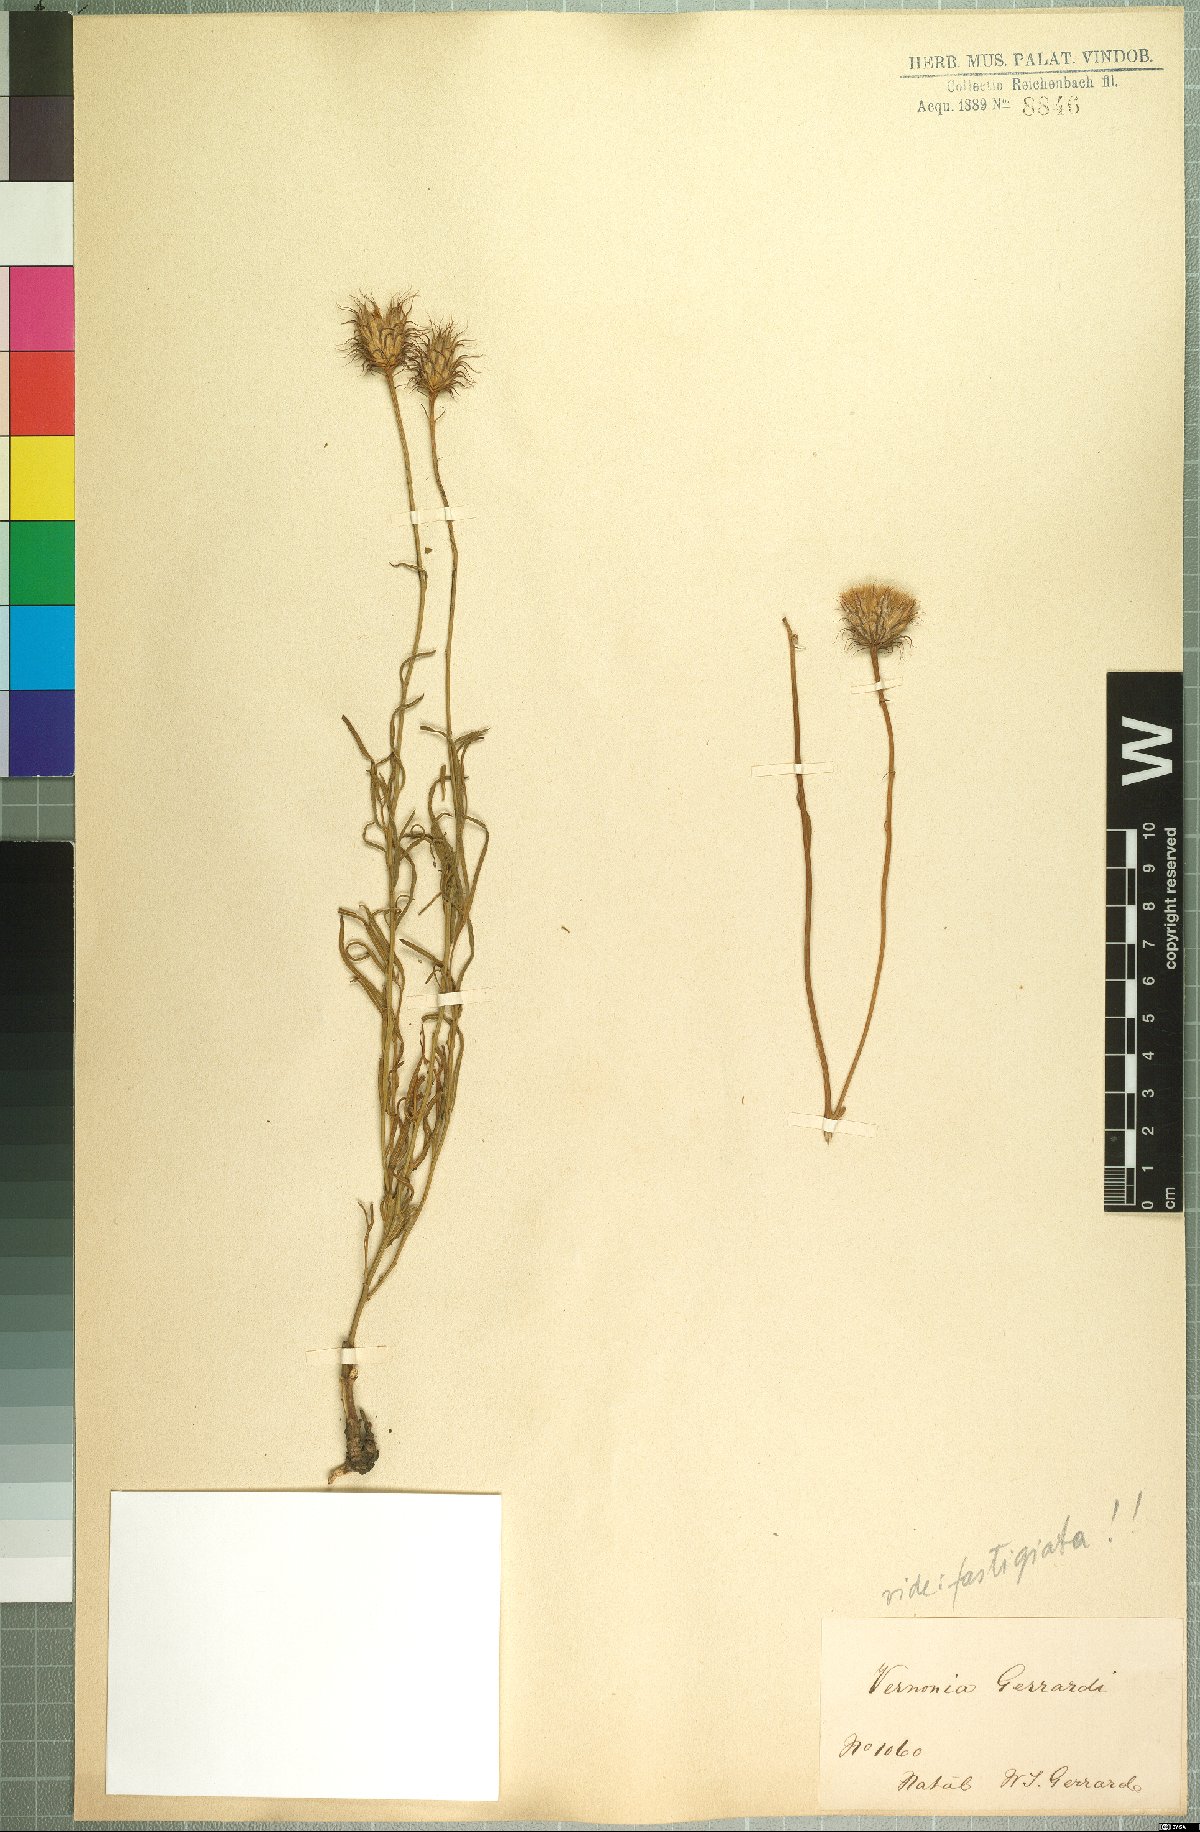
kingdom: Plantae
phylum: Tracheophyta
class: Magnoliopsida
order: Asterales
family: Asteraceae
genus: Parapolydora
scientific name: Parapolydora gerrardii
